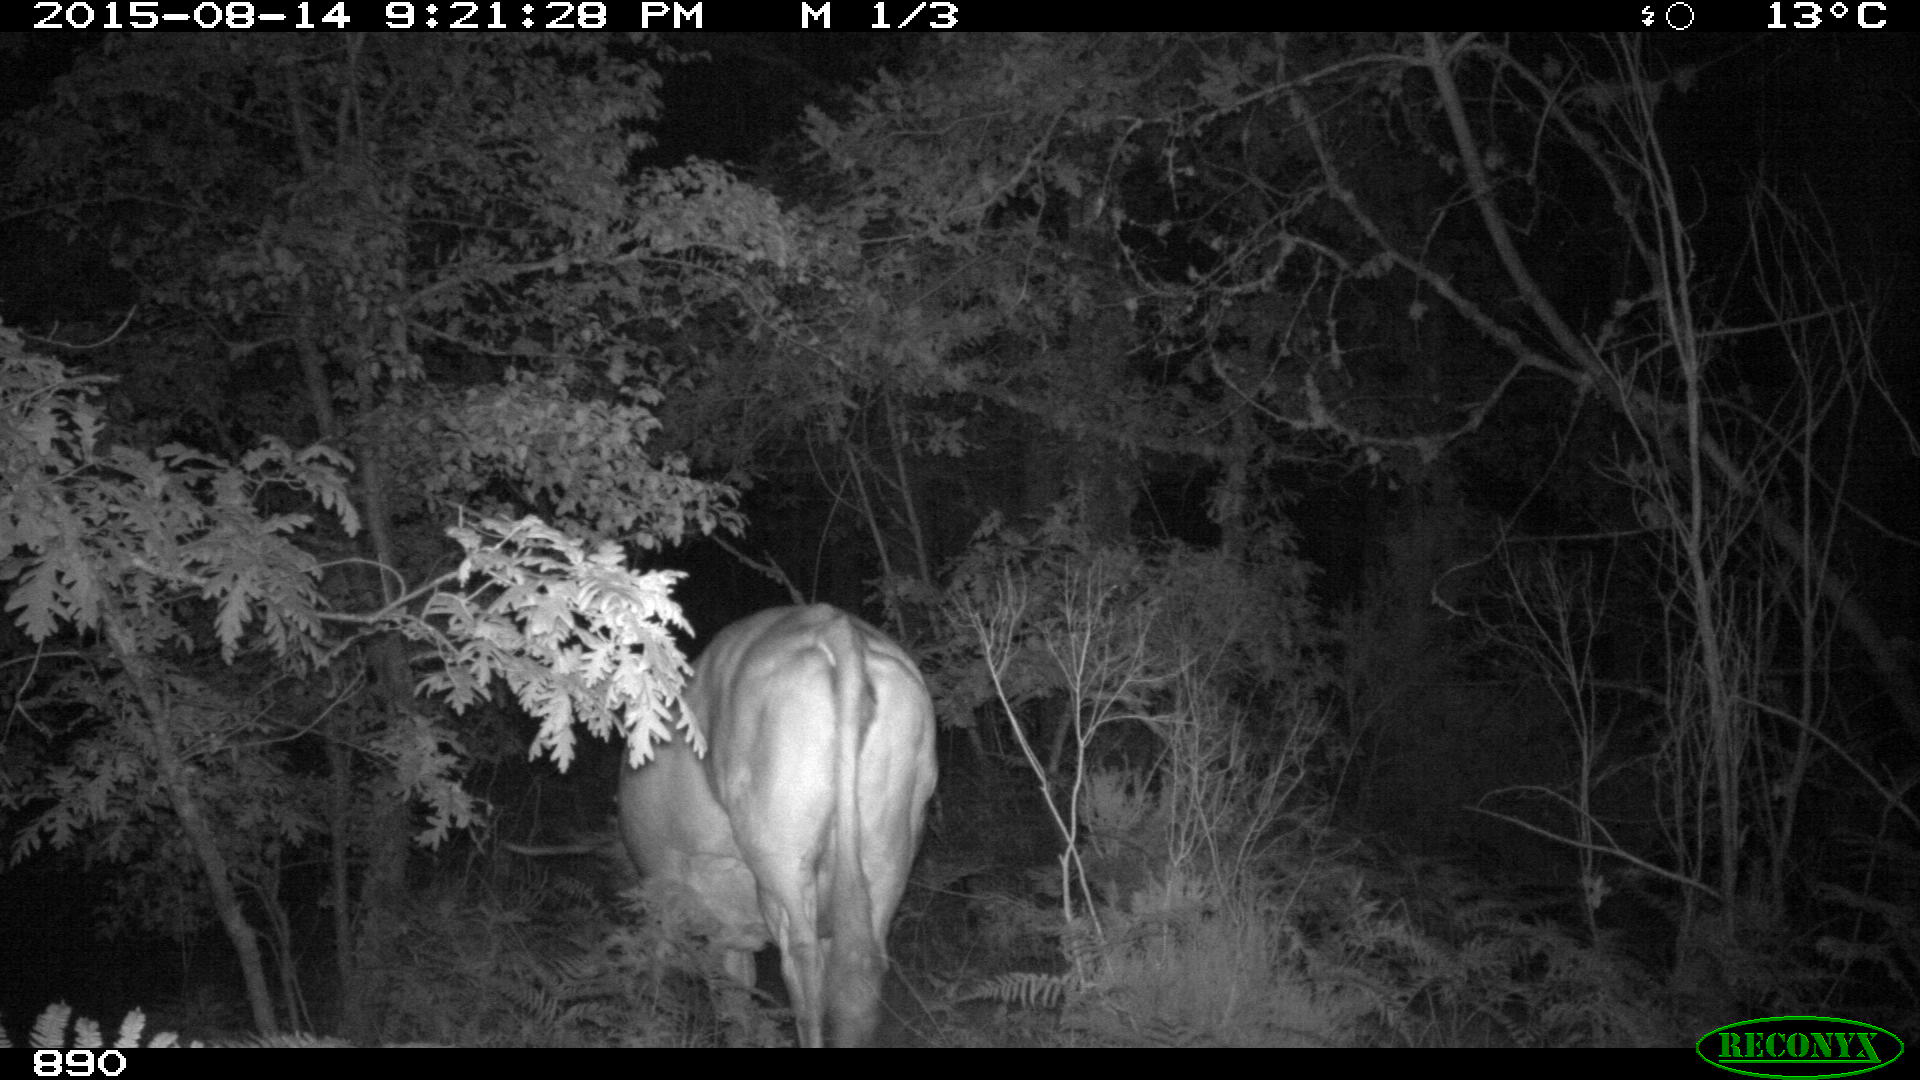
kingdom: Animalia
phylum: Chordata
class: Mammalia
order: Artiodactyla
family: Bovidae
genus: Bos
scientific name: Bos taurus
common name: Domesticated cattle
